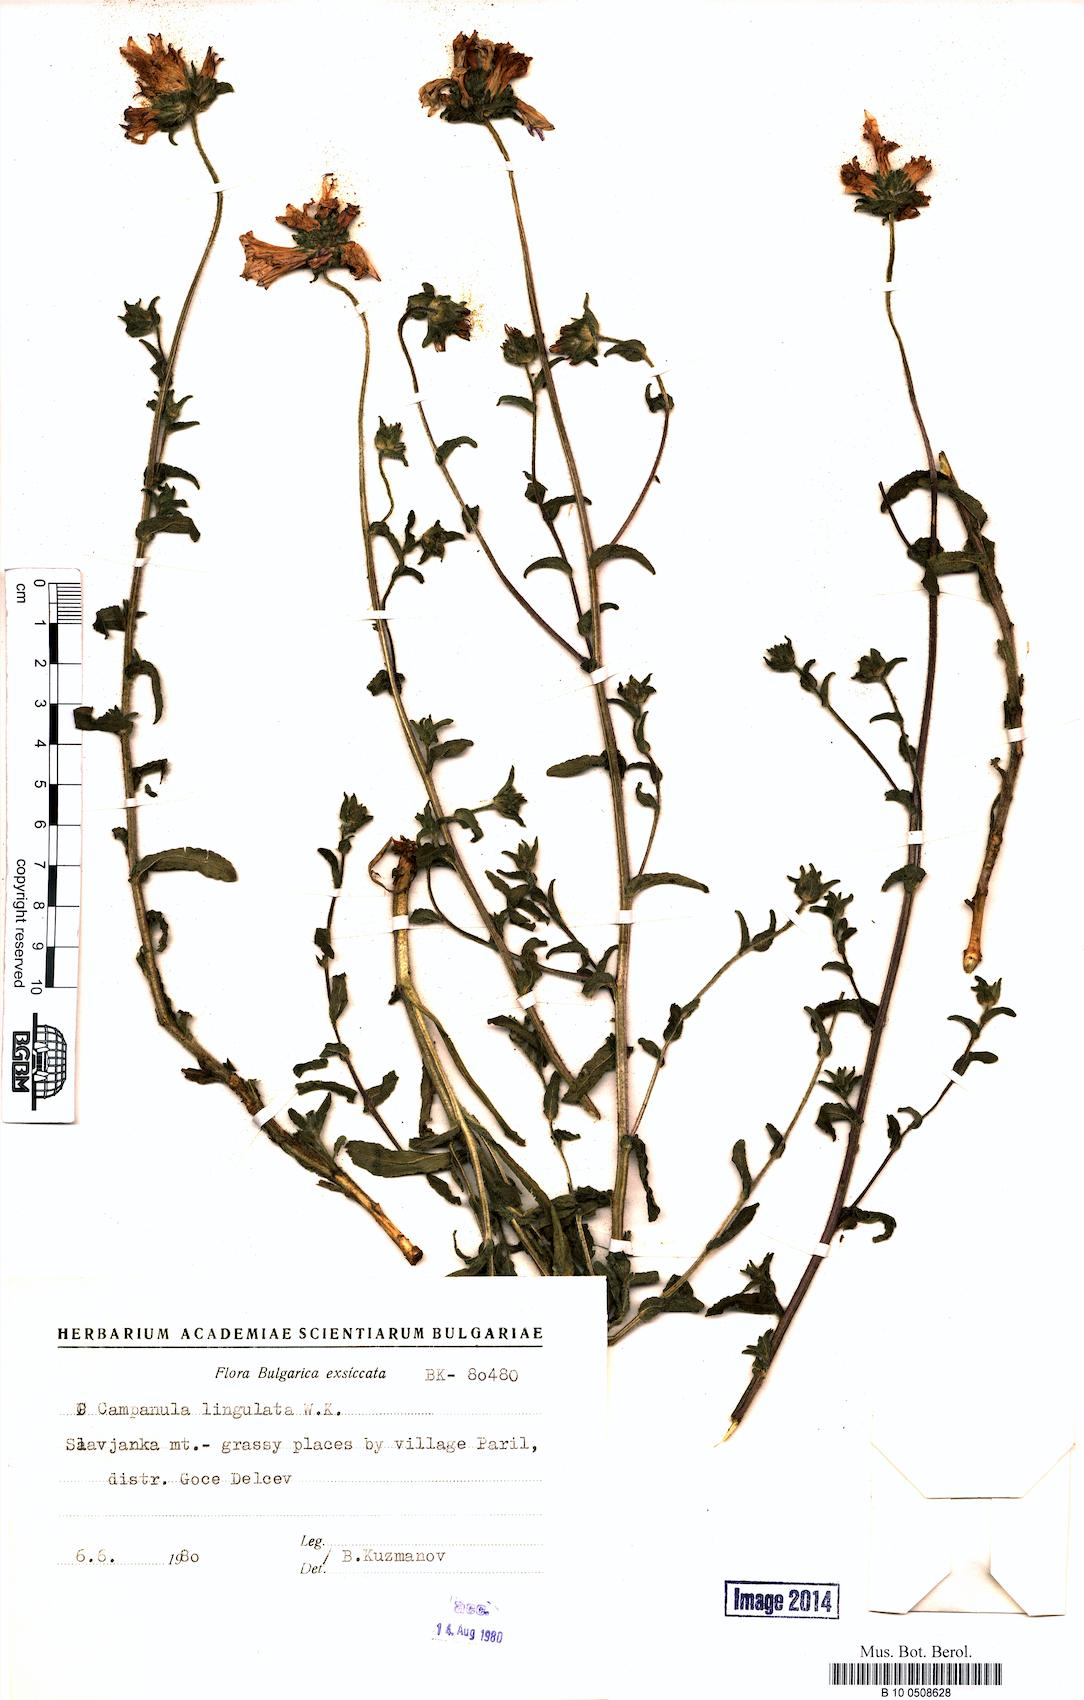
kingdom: Plantae
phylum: Tracheophyta
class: Magnoliopsida
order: Asterales
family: Campanulaceae
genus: Campanula
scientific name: Campanula lingulata
